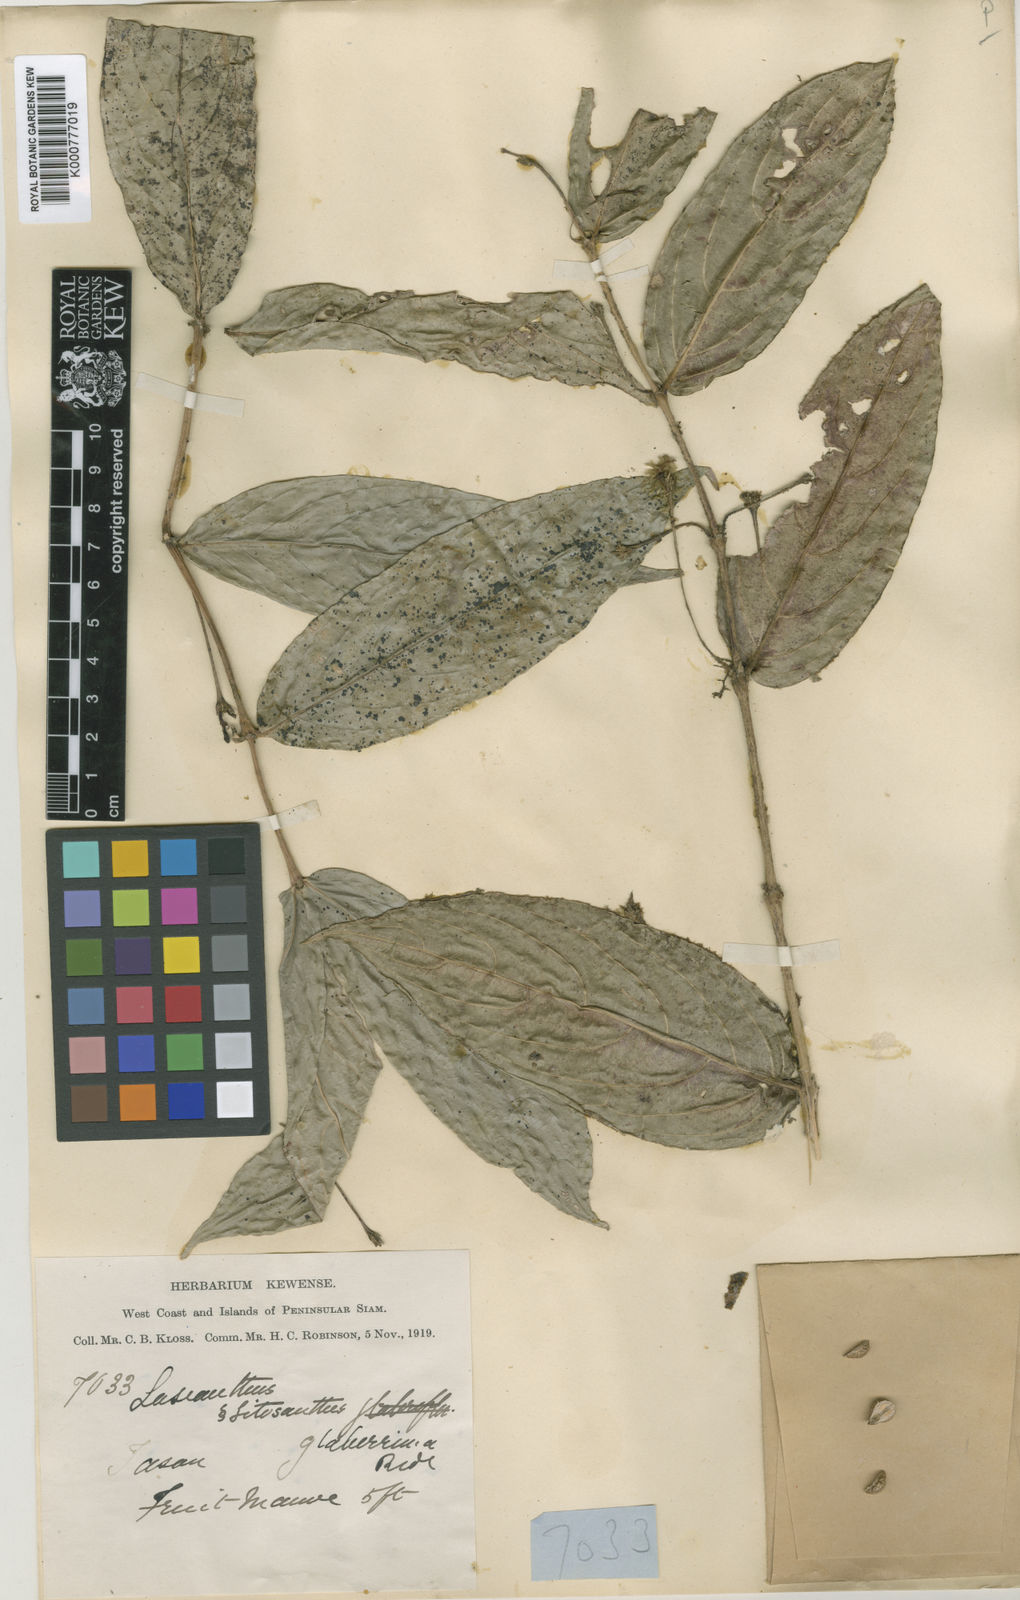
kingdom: Plantae
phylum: Tracheophyta
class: Magnoliopsida
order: Gentianales
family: Rubiaceae
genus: Lasianthus
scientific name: Lasianthus longipedunculatus
